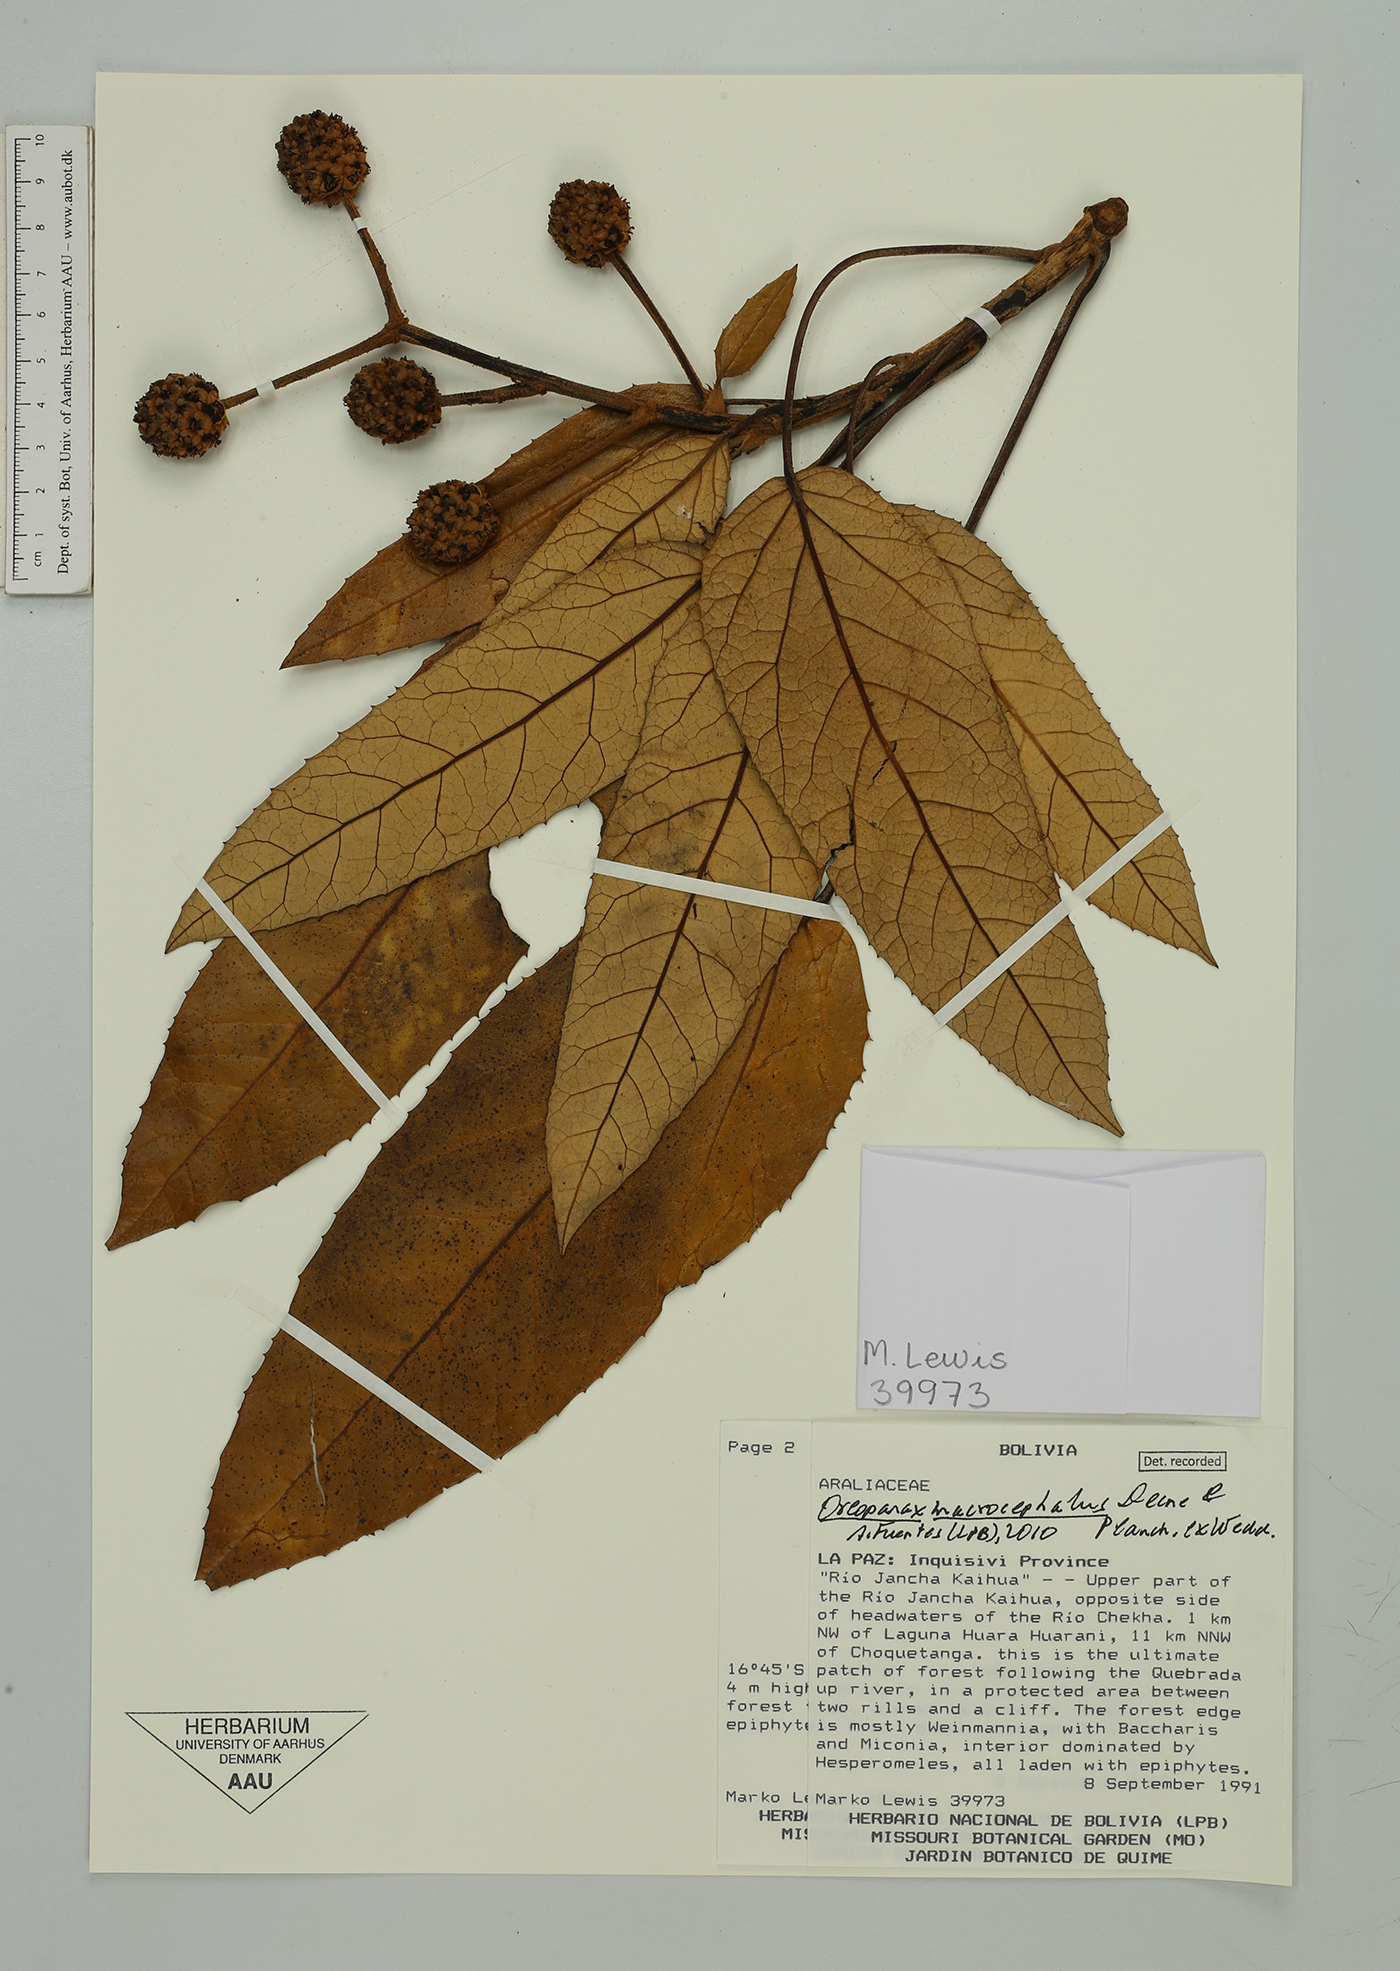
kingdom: Plantae
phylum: Tracheophyta
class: Magnoliopsida
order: Apiales
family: Araliaceae
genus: Oreopanax
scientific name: Oreopanax macrocephalus
